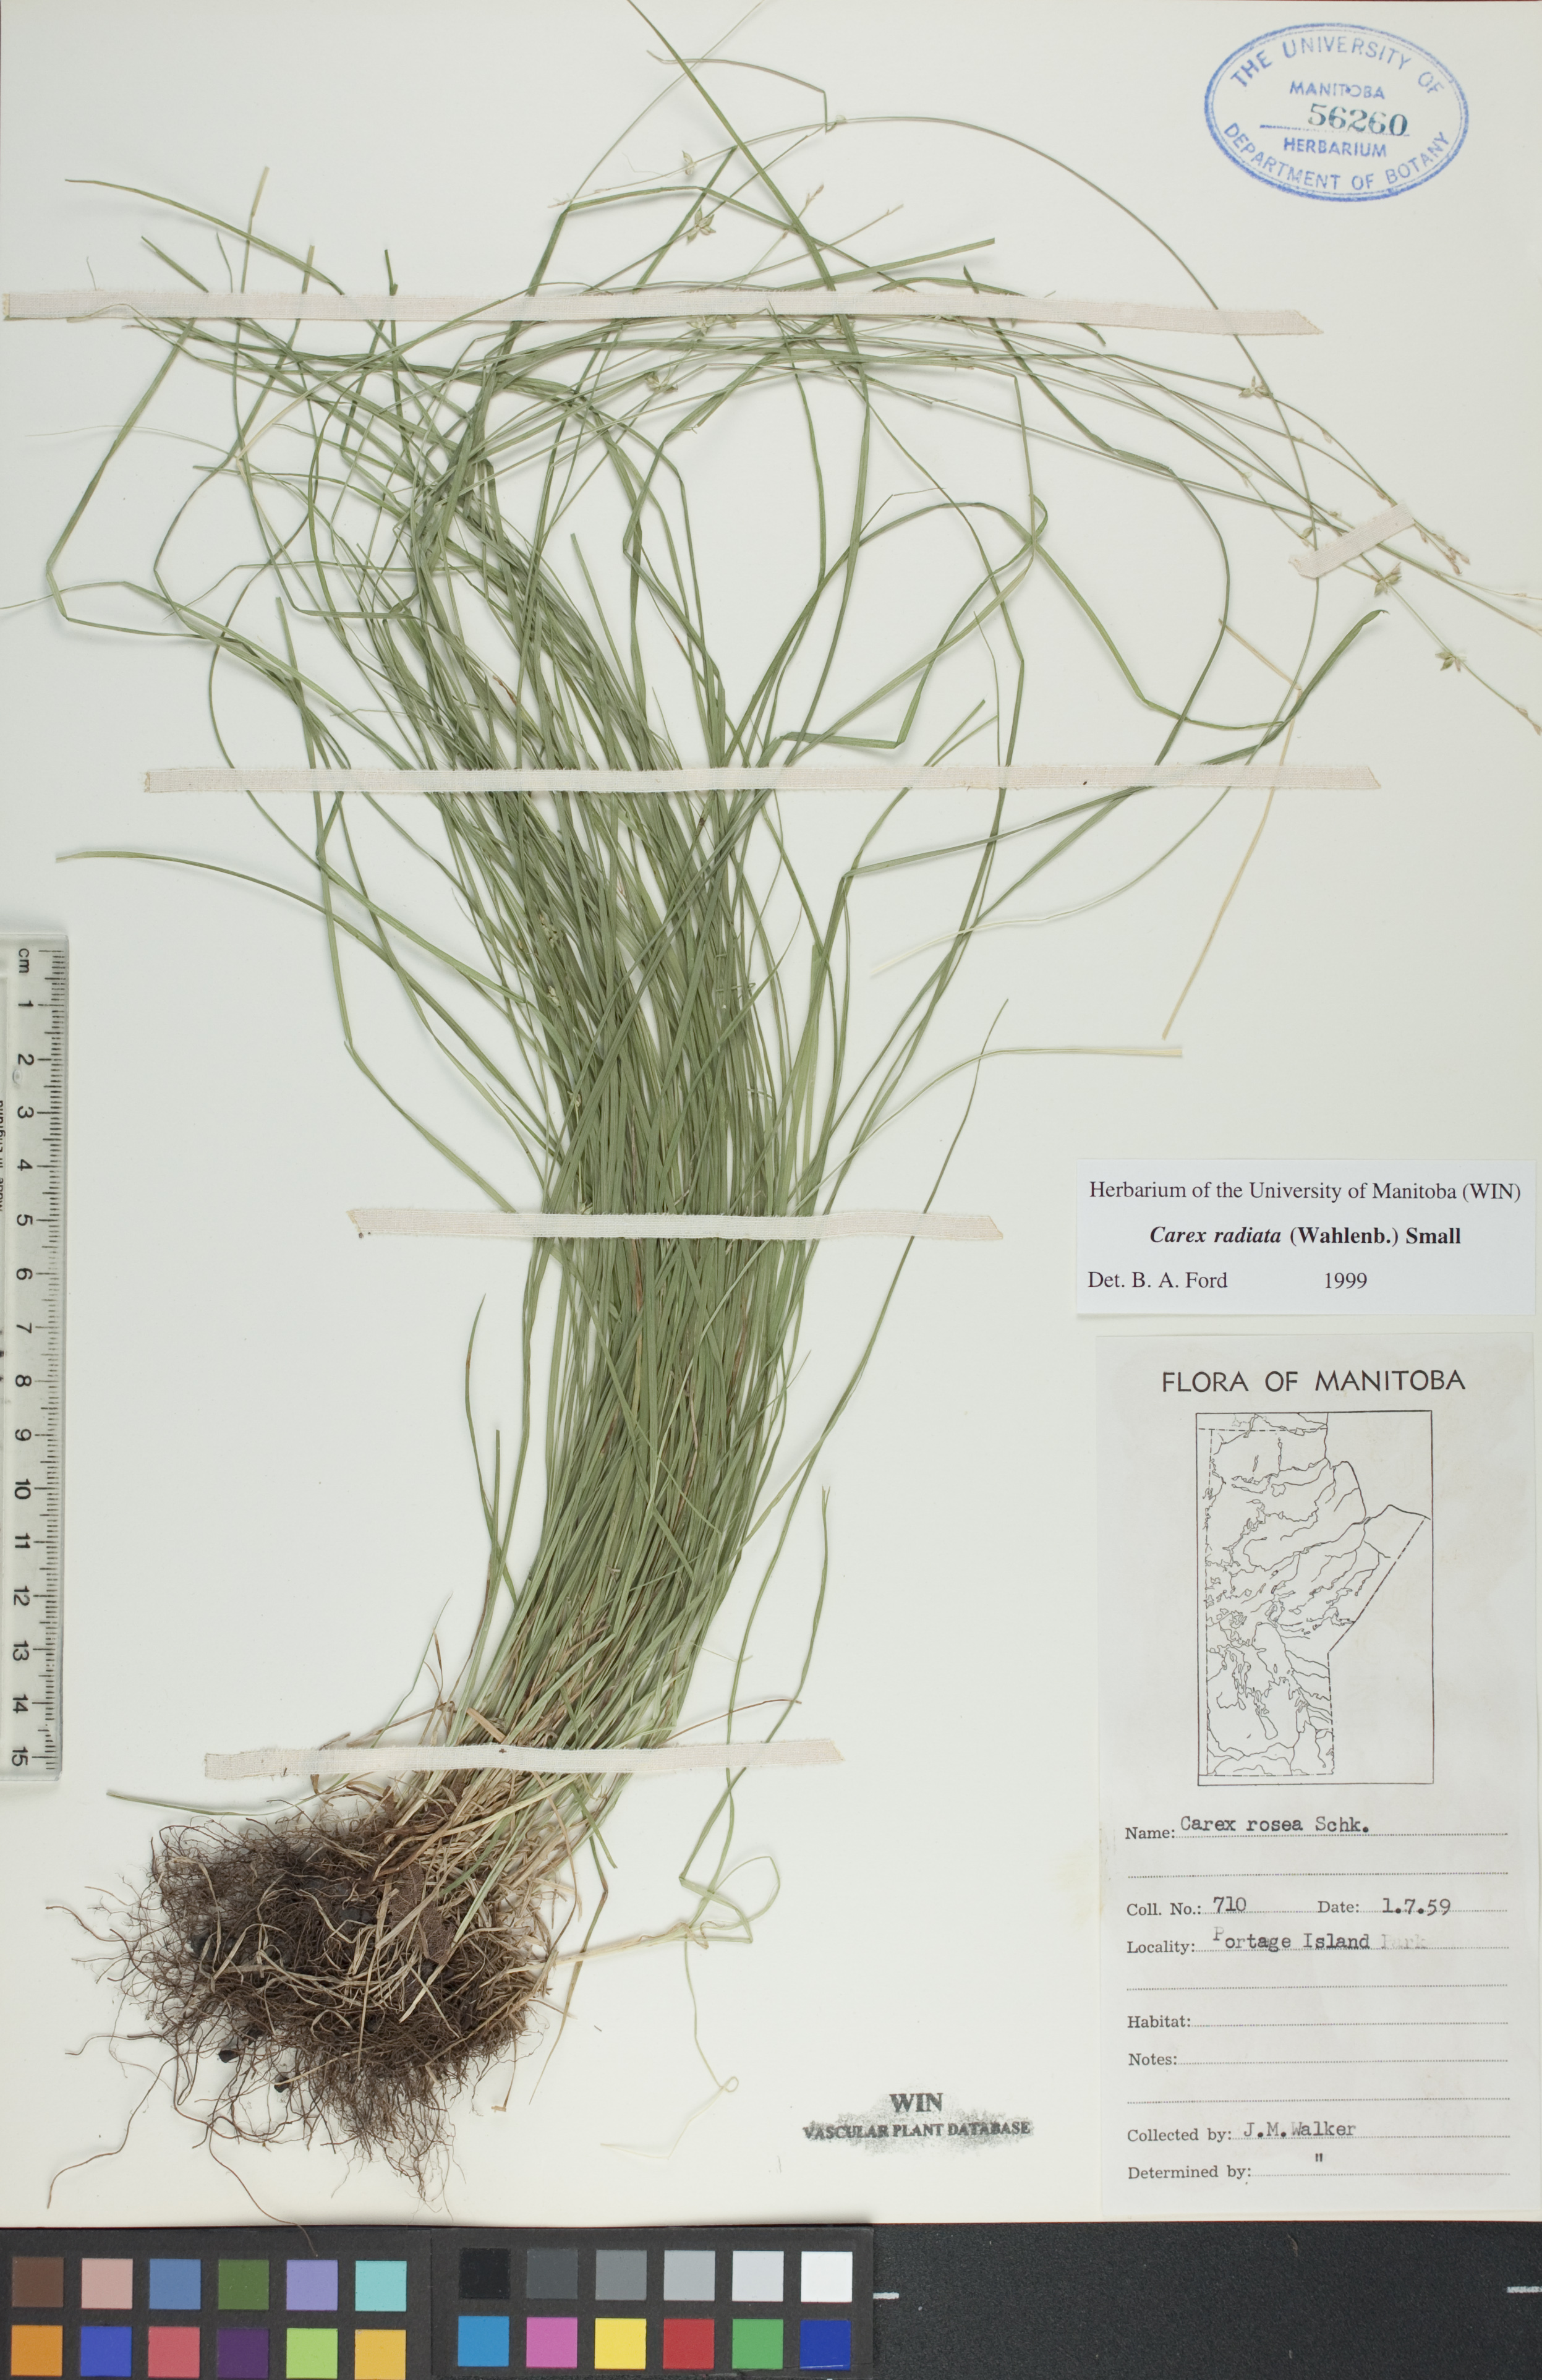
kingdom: Plantae
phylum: Tracheophyta
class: Liliopsida
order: Poales
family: Cyperaceae
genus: Carex
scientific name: Carex radiata
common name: Eastern star sedge
